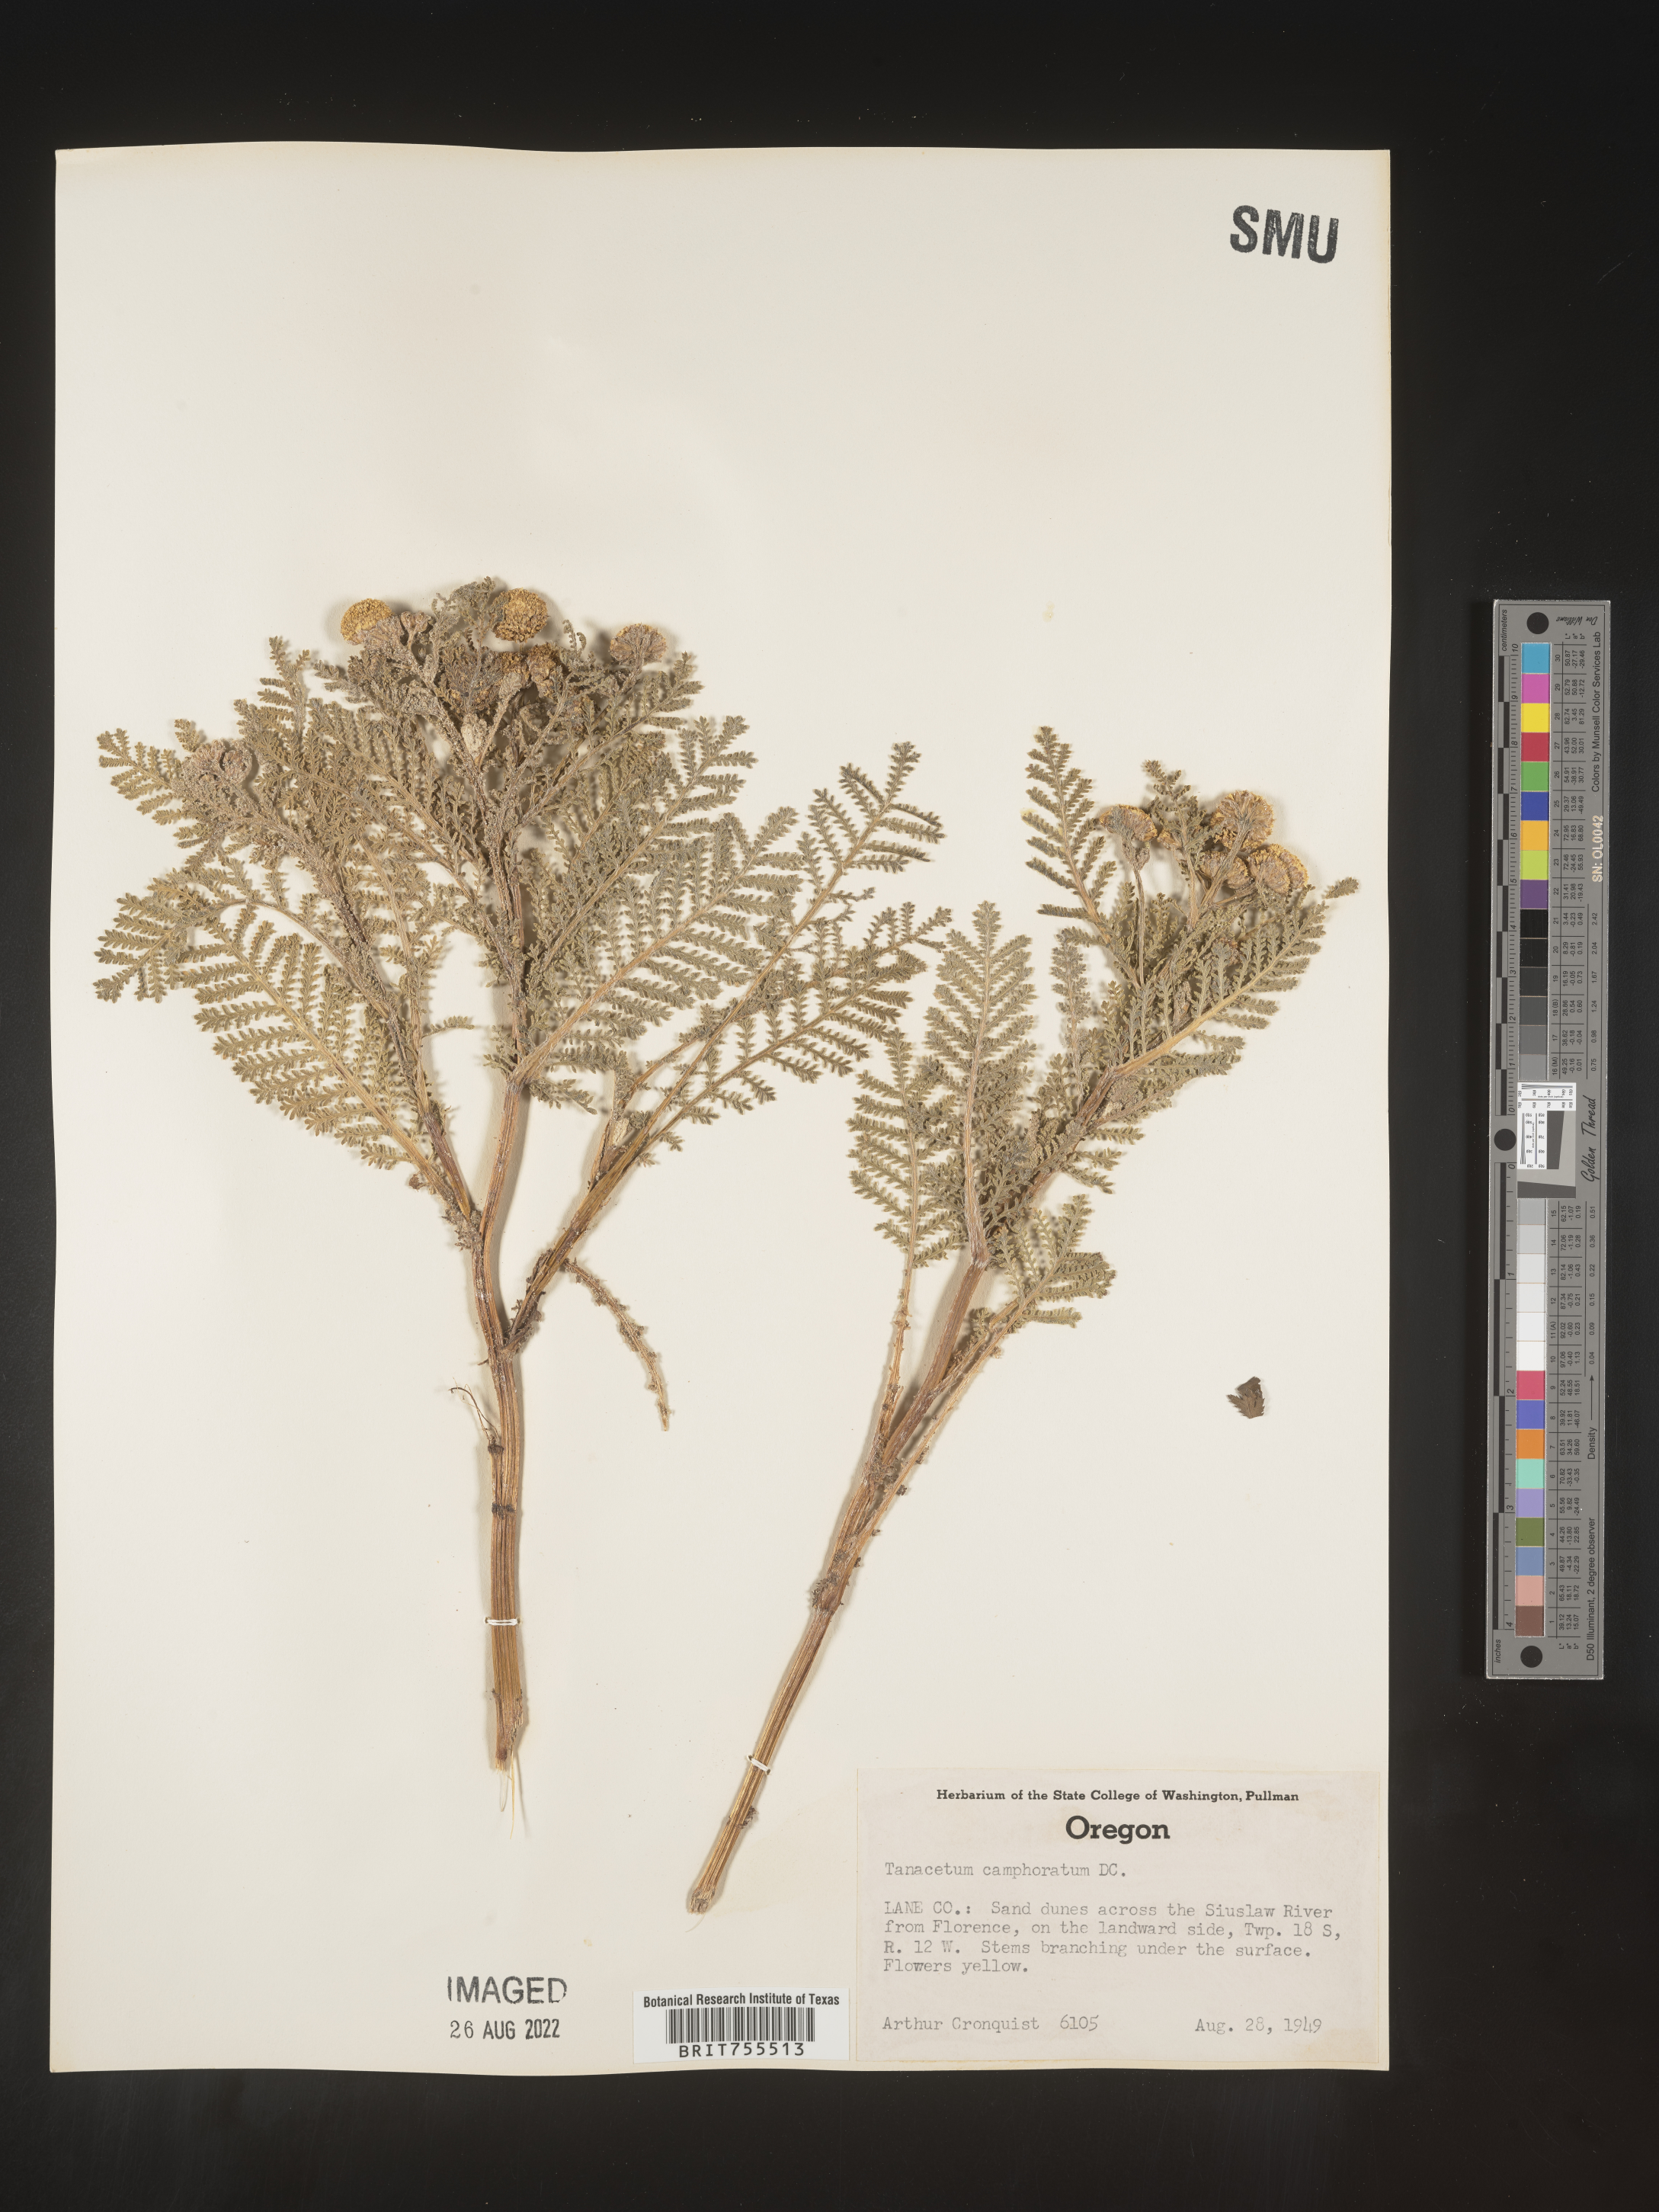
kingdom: Plantae
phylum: Tracheophyta
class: Magnoliopsida
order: Asterales
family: Asteraceae
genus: Tanacetum
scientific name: Tanacetum bipinnatum
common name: Dwarf tansy
